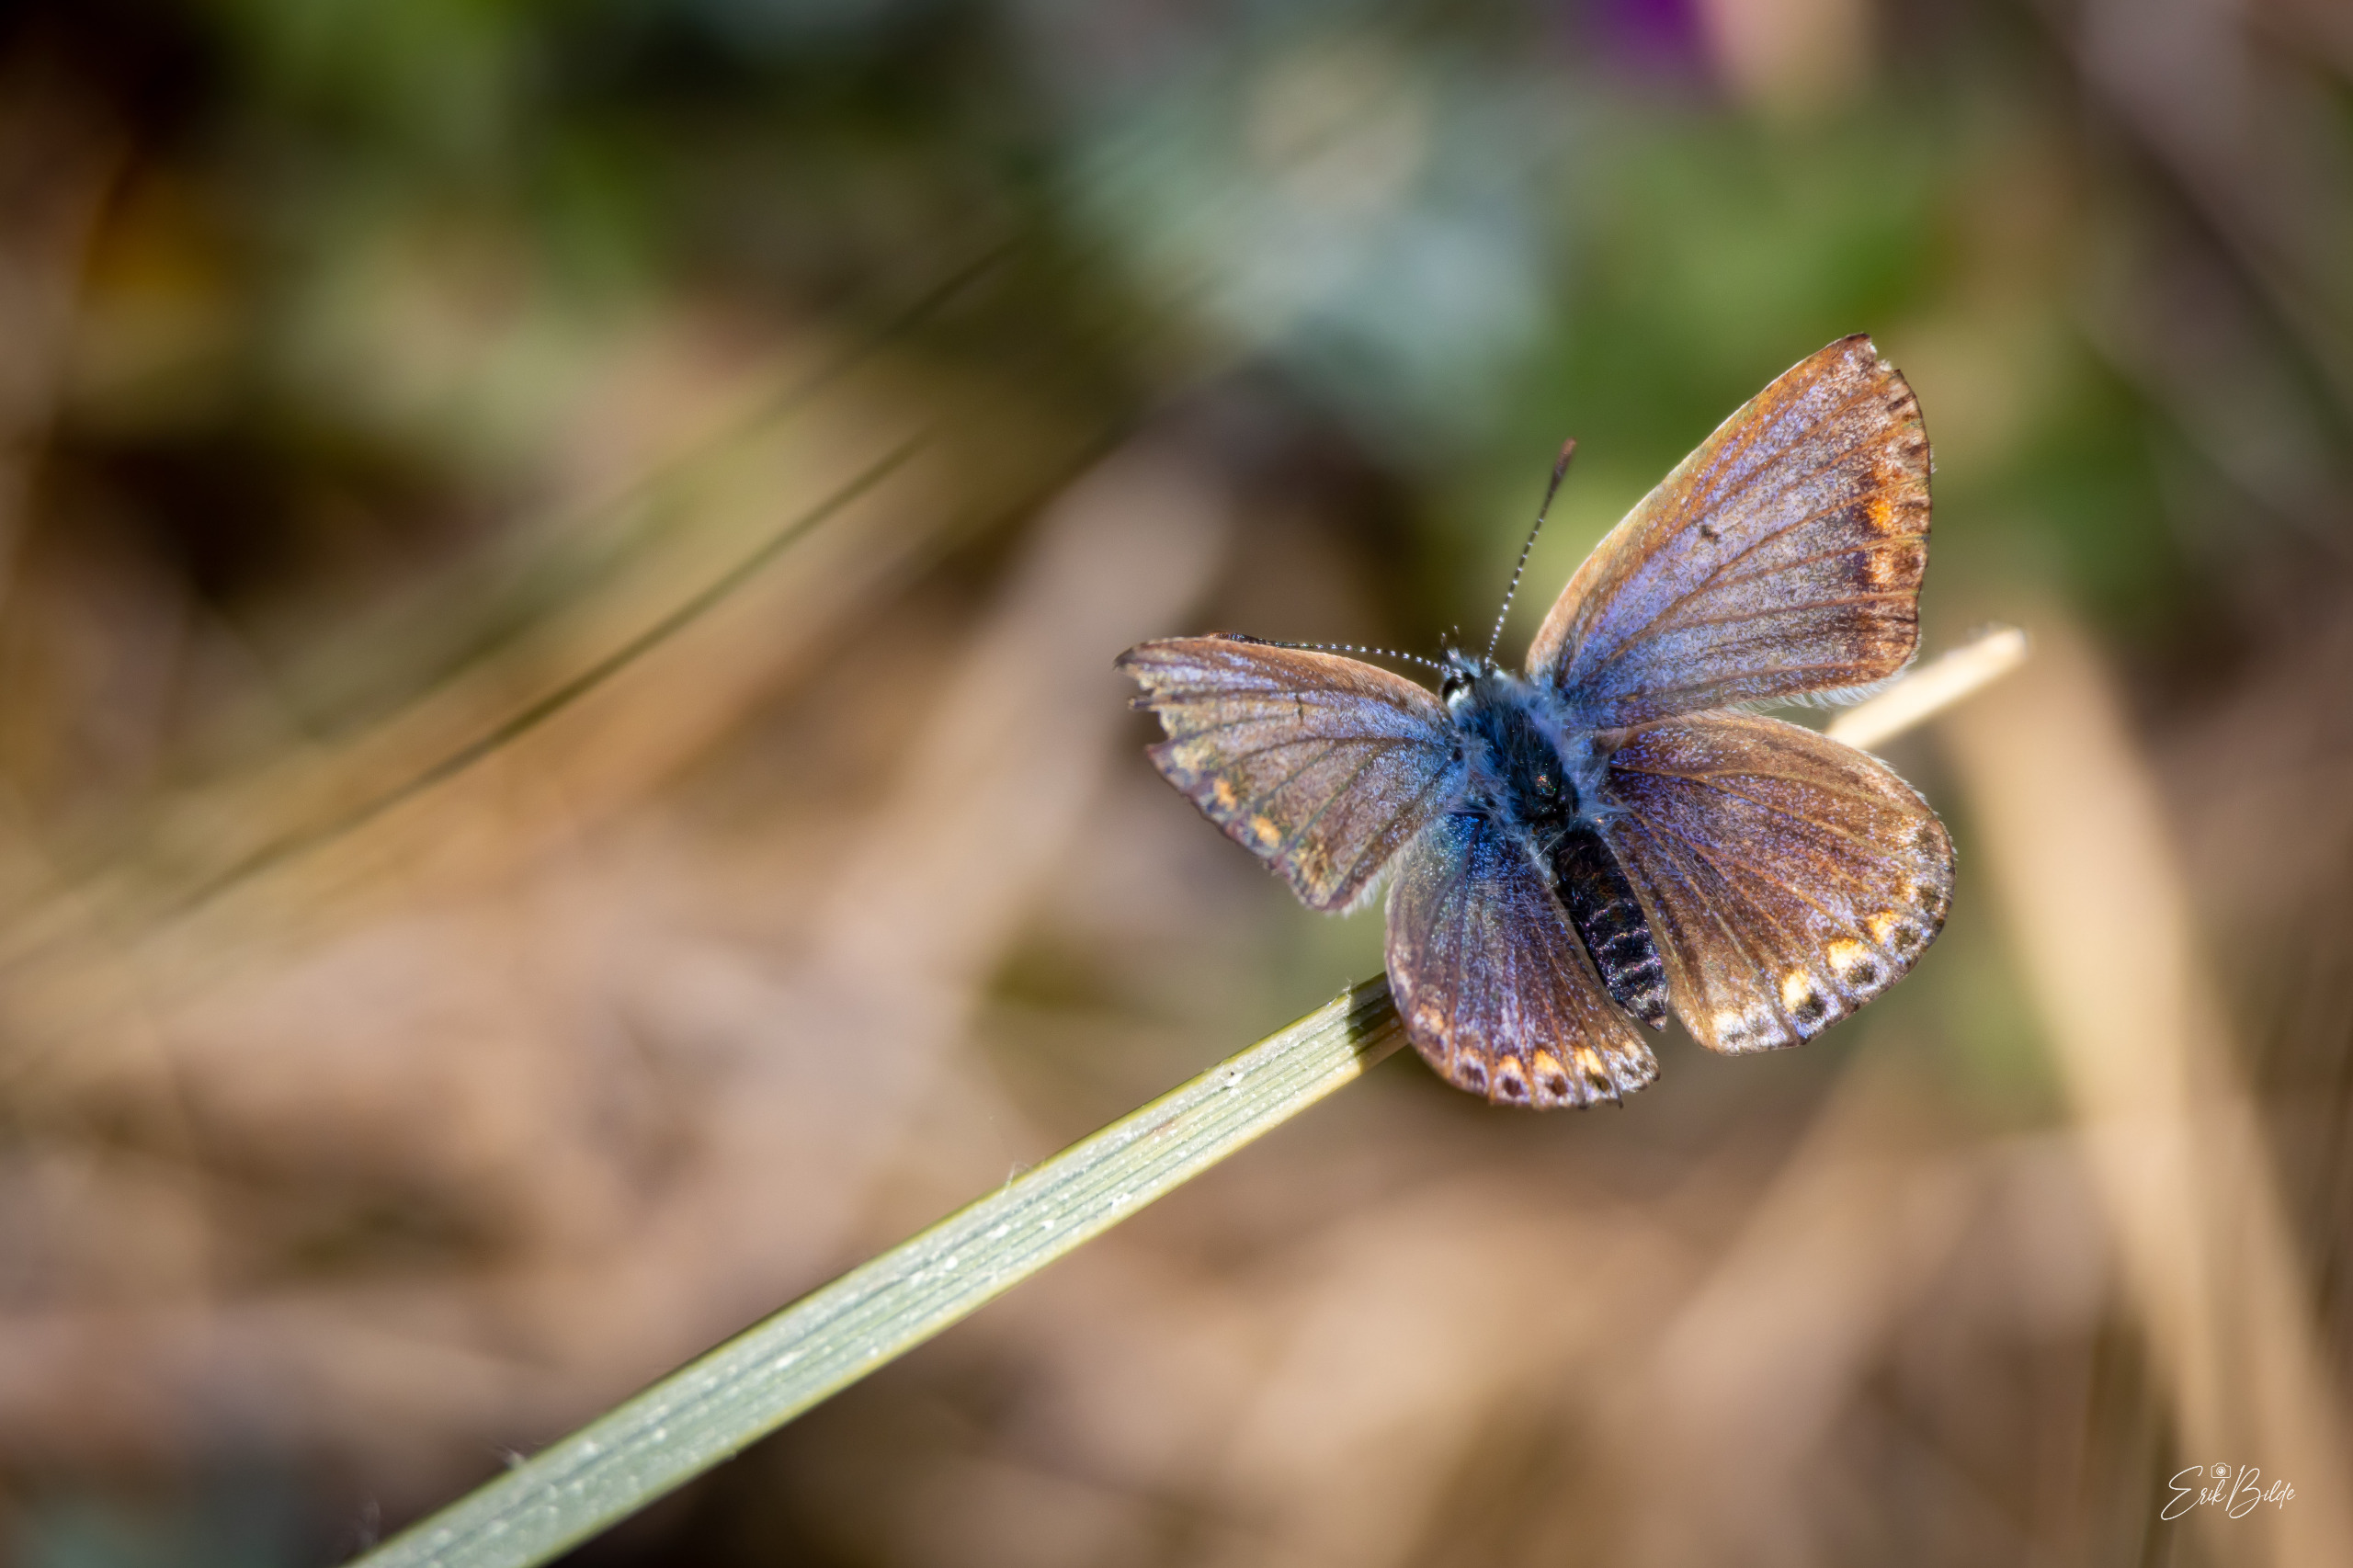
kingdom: Animalia
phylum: Arthropoda
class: Insecta
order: Lepidoptera
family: Lycaenidae
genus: Polyommatus
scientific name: Polyommatus icarus
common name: Almindelig blåfugl
